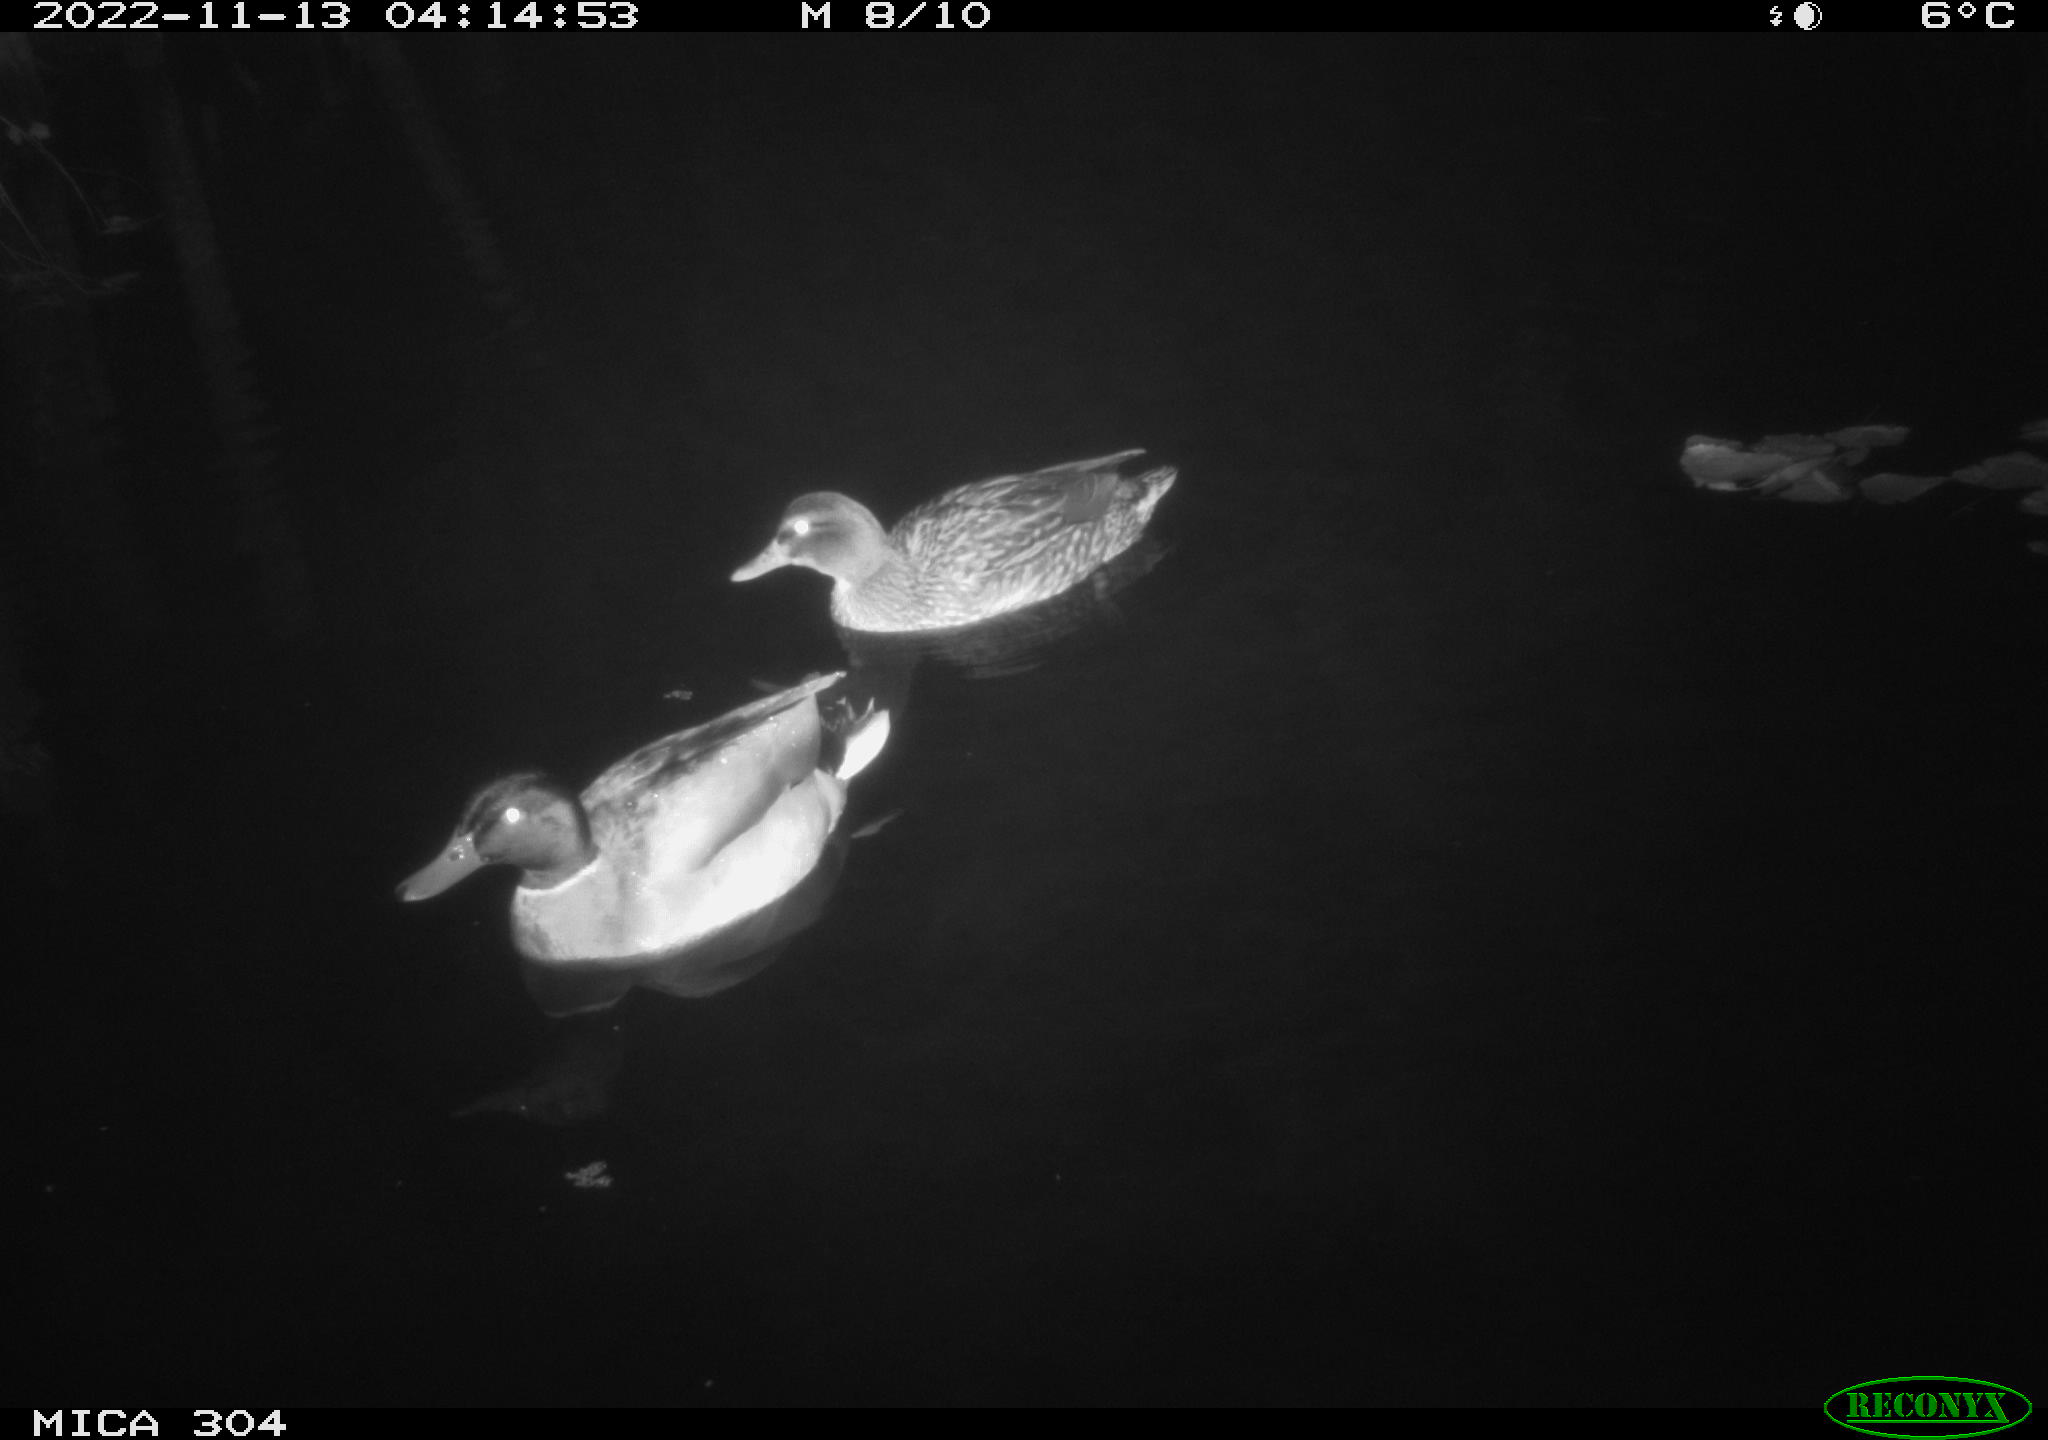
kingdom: Animalia
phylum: Chordata
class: Aves
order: Anseriformes
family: Anatidae
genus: Anas
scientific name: Anas
